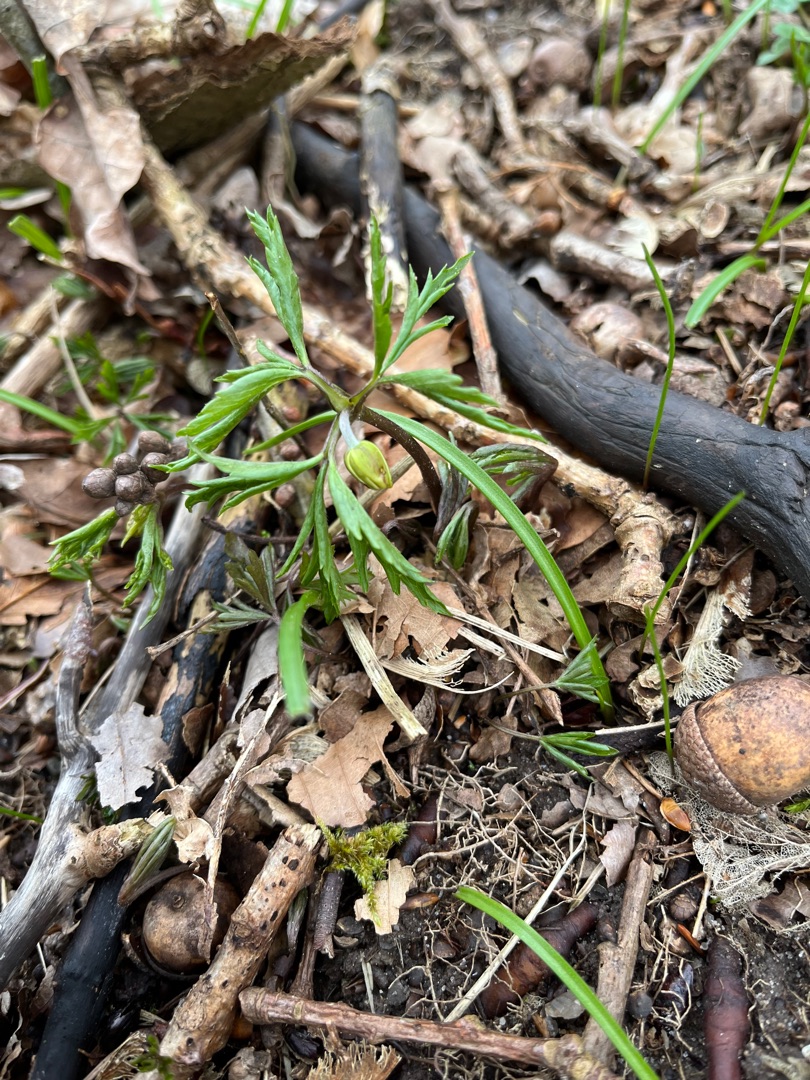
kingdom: Plantae
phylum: Tracheophyta
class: Magnoliopsida
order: Ranunculales
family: Ranunculaceae
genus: Anemone
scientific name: Anemone nemorosa
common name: Hvid anemone
